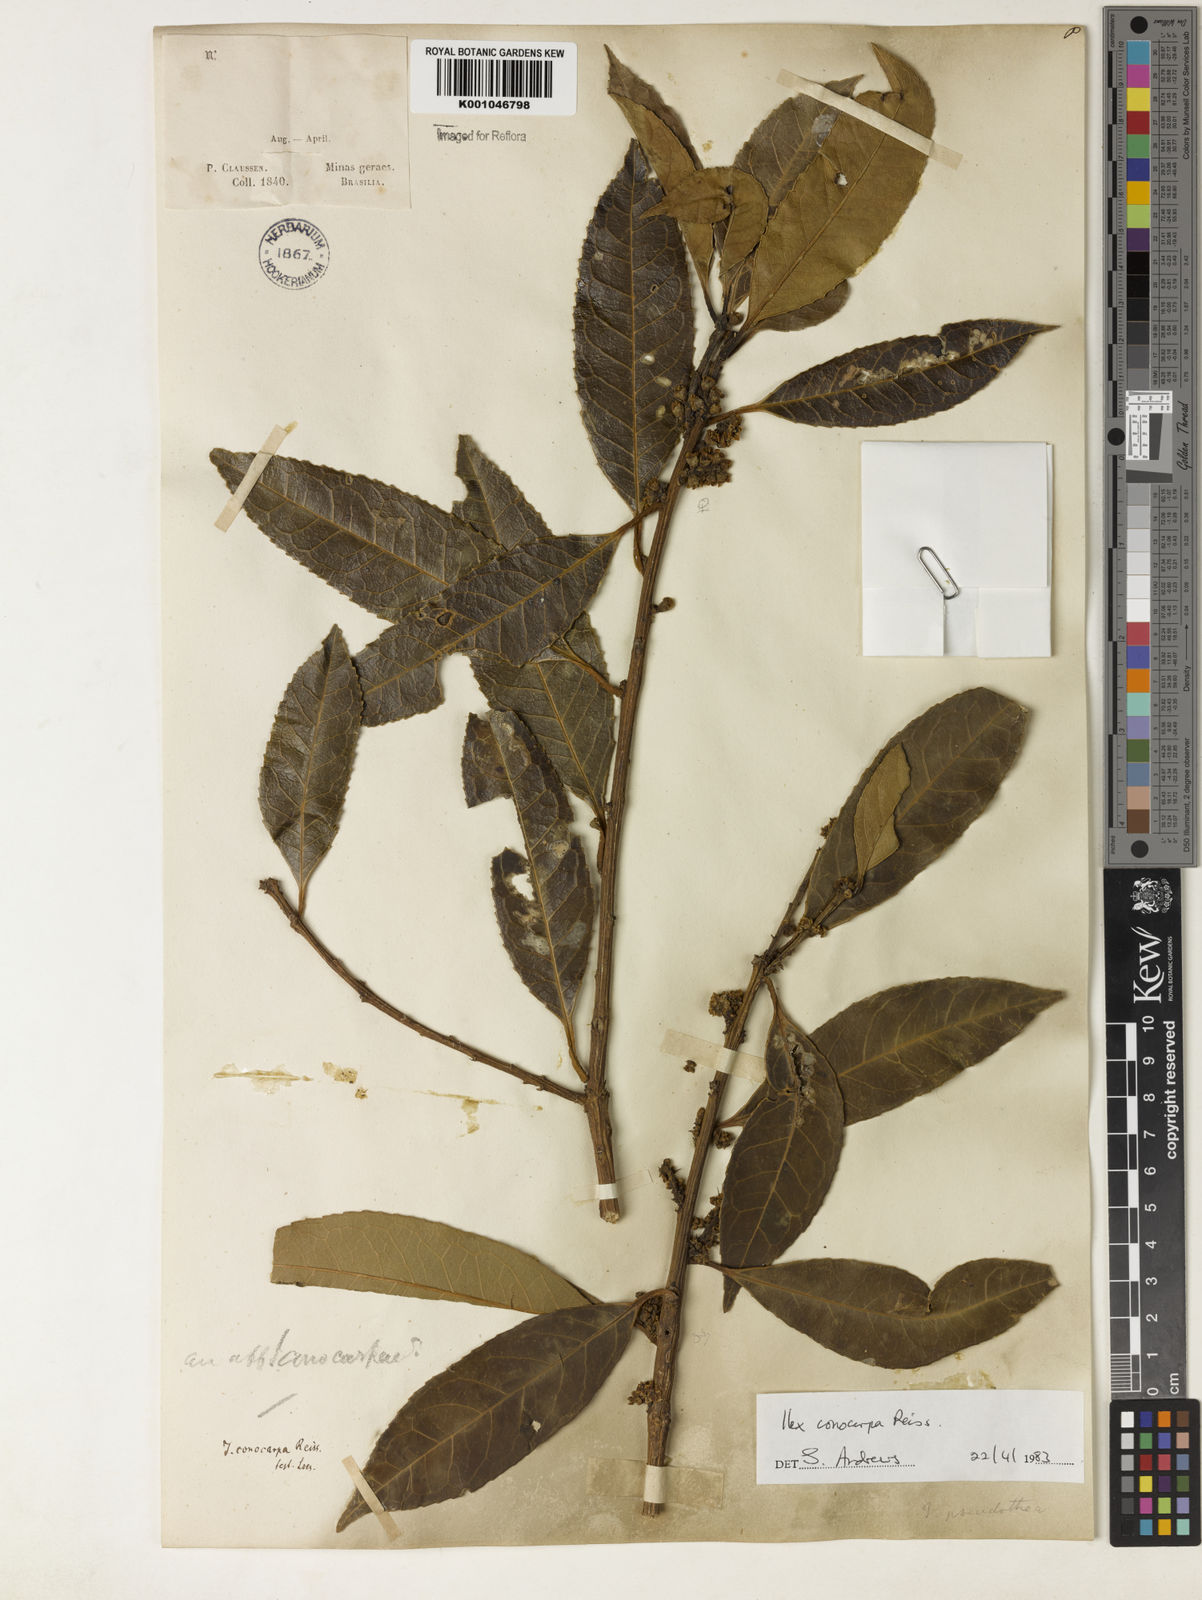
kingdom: Plantae
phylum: Tracheophyta
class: Magnoliopsida
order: Aquifoliales
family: Aquifoliaceae
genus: Ilex
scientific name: Ilex conocarpa
